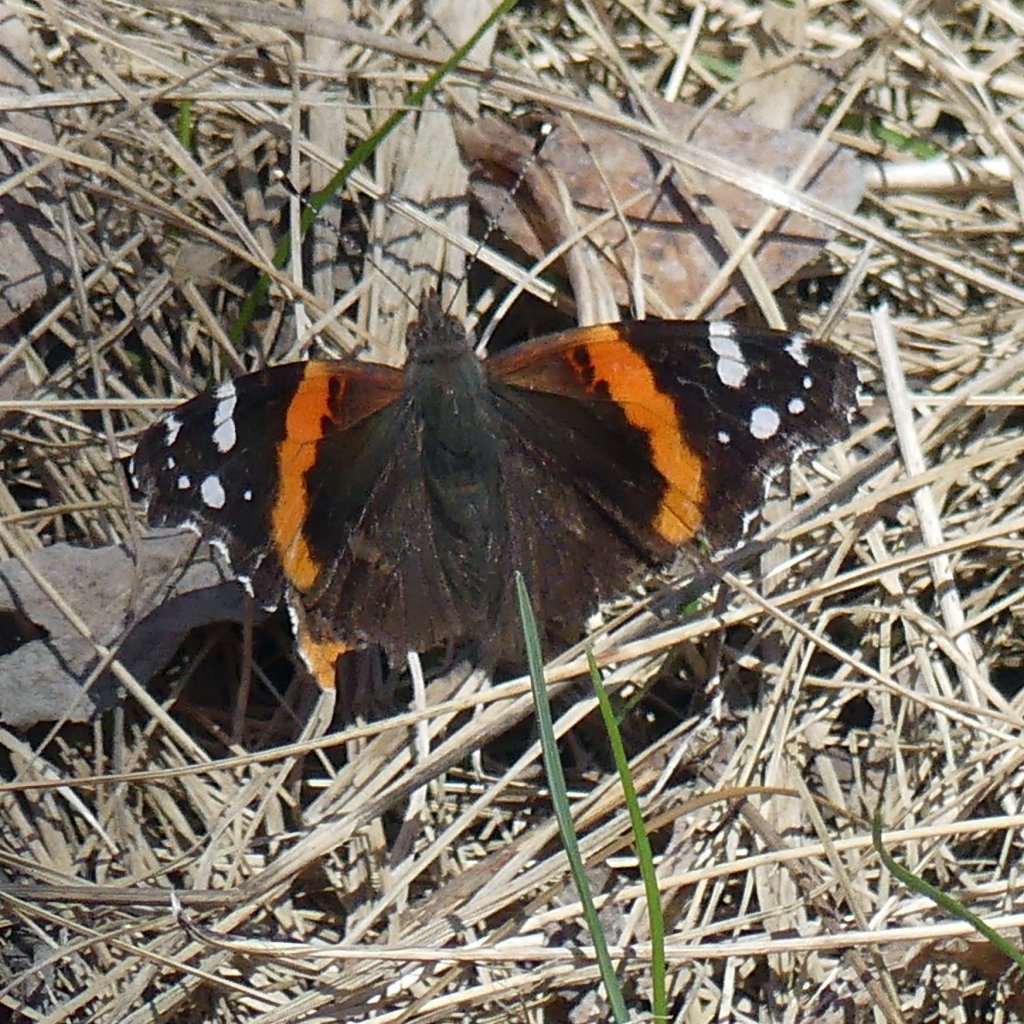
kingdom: Animalia
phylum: Arthropoda
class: Insecta
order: Lepidoptera
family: Nymphalidae
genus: Vanessa
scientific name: Vanessa atalanta
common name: Red Admiral
